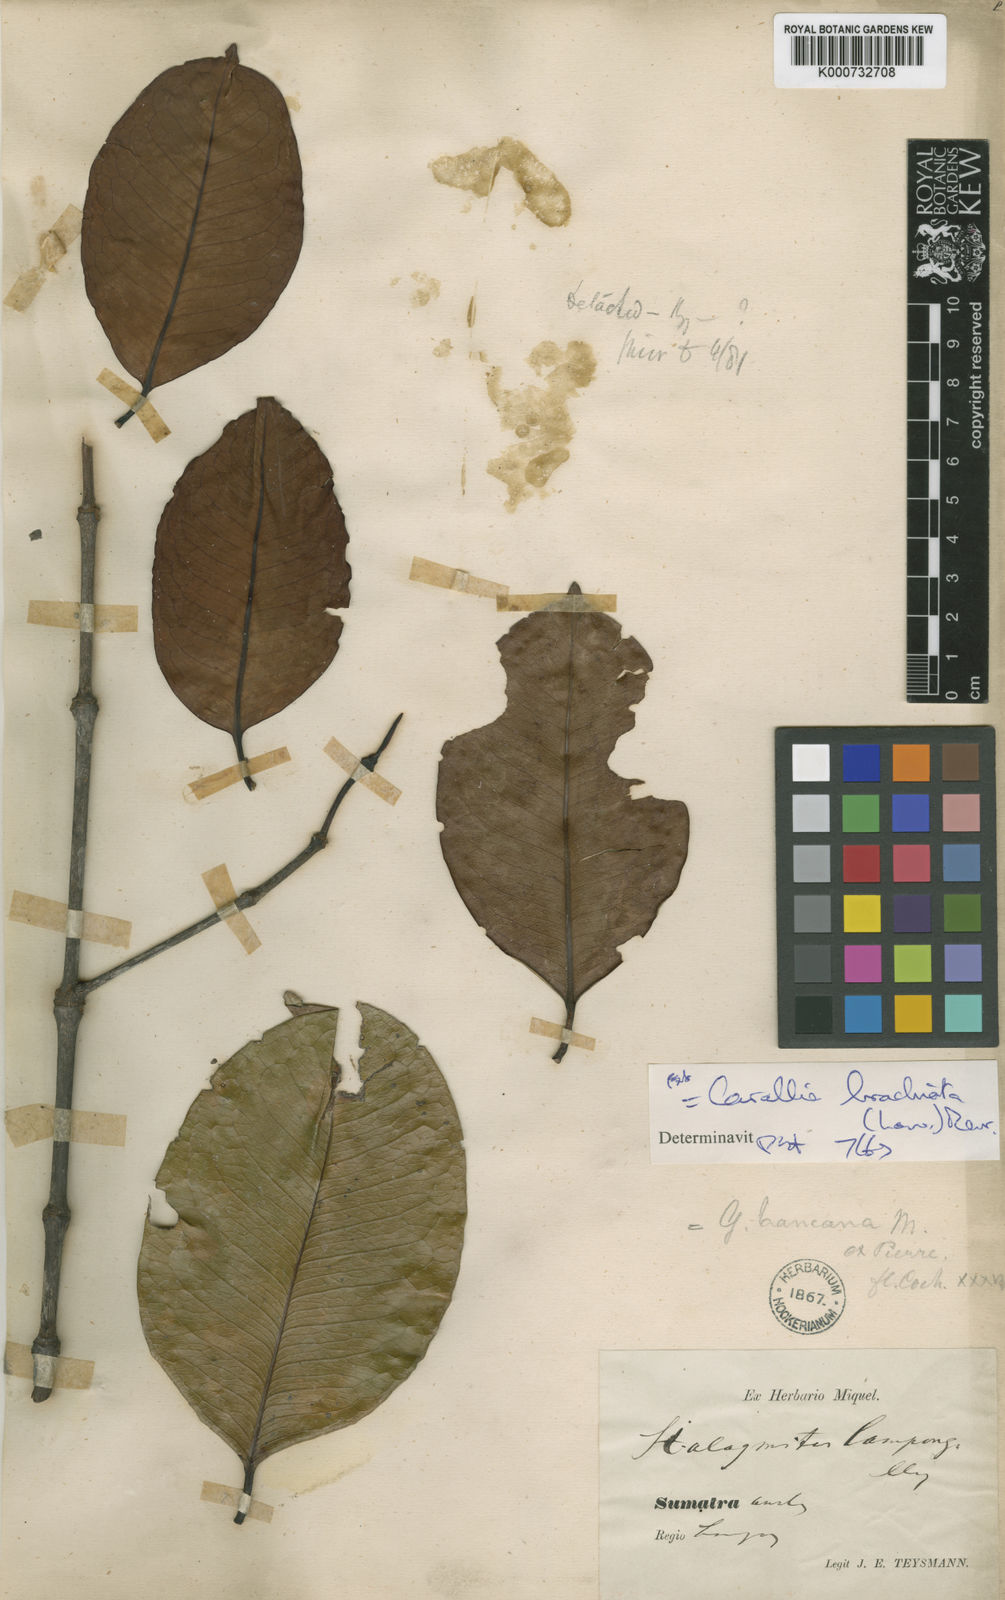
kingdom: Plantae
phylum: Tracheophyta
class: Magnoliopsida
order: Malpighiales
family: Rhizophoraceae
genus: Carallia
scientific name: Carallia brachiata
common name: Carallawood
